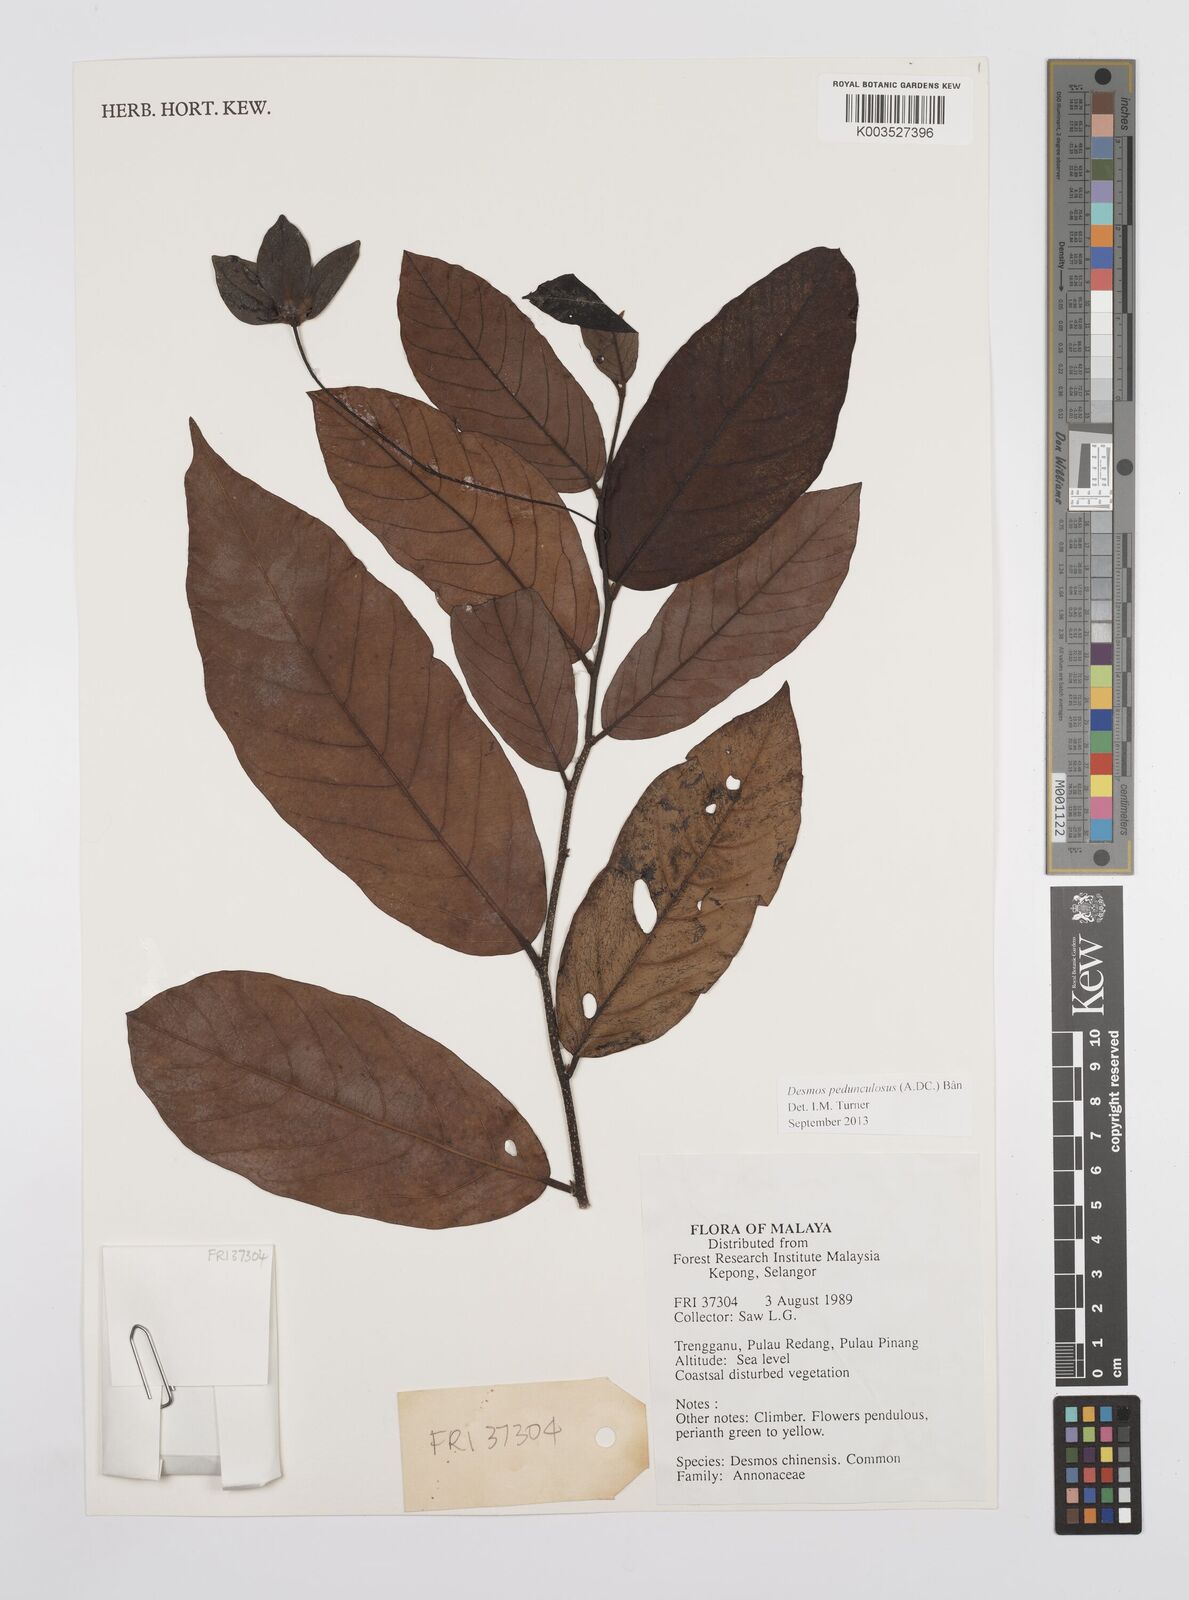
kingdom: Plantae
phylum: Tracheophyta
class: Magnoliopsida
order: Magnoliales
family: Annonaceae
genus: Desmos
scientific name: Desmos cochinchinensis
